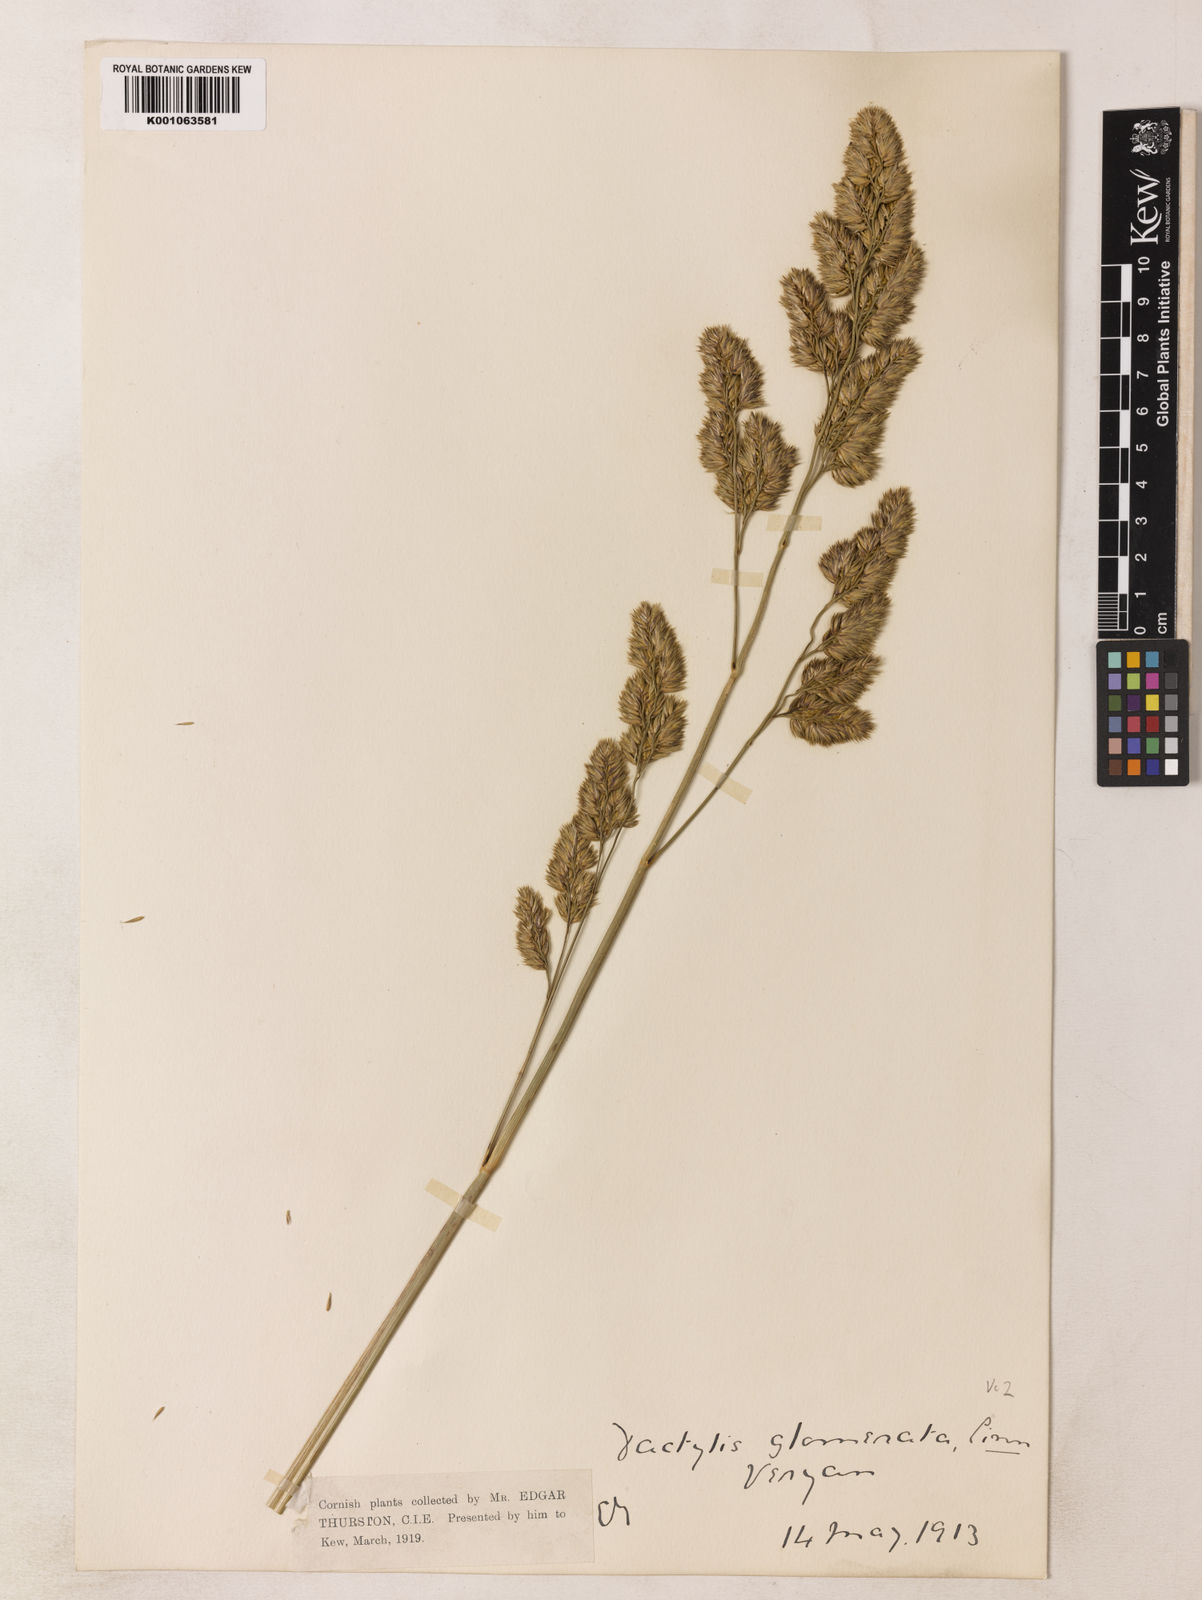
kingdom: Plantae
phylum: Tracheophyta
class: Liliopsida
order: Poales
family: Poaceae
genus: Dactylis
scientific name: Dactylis glomerata
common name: Orchardgrass
